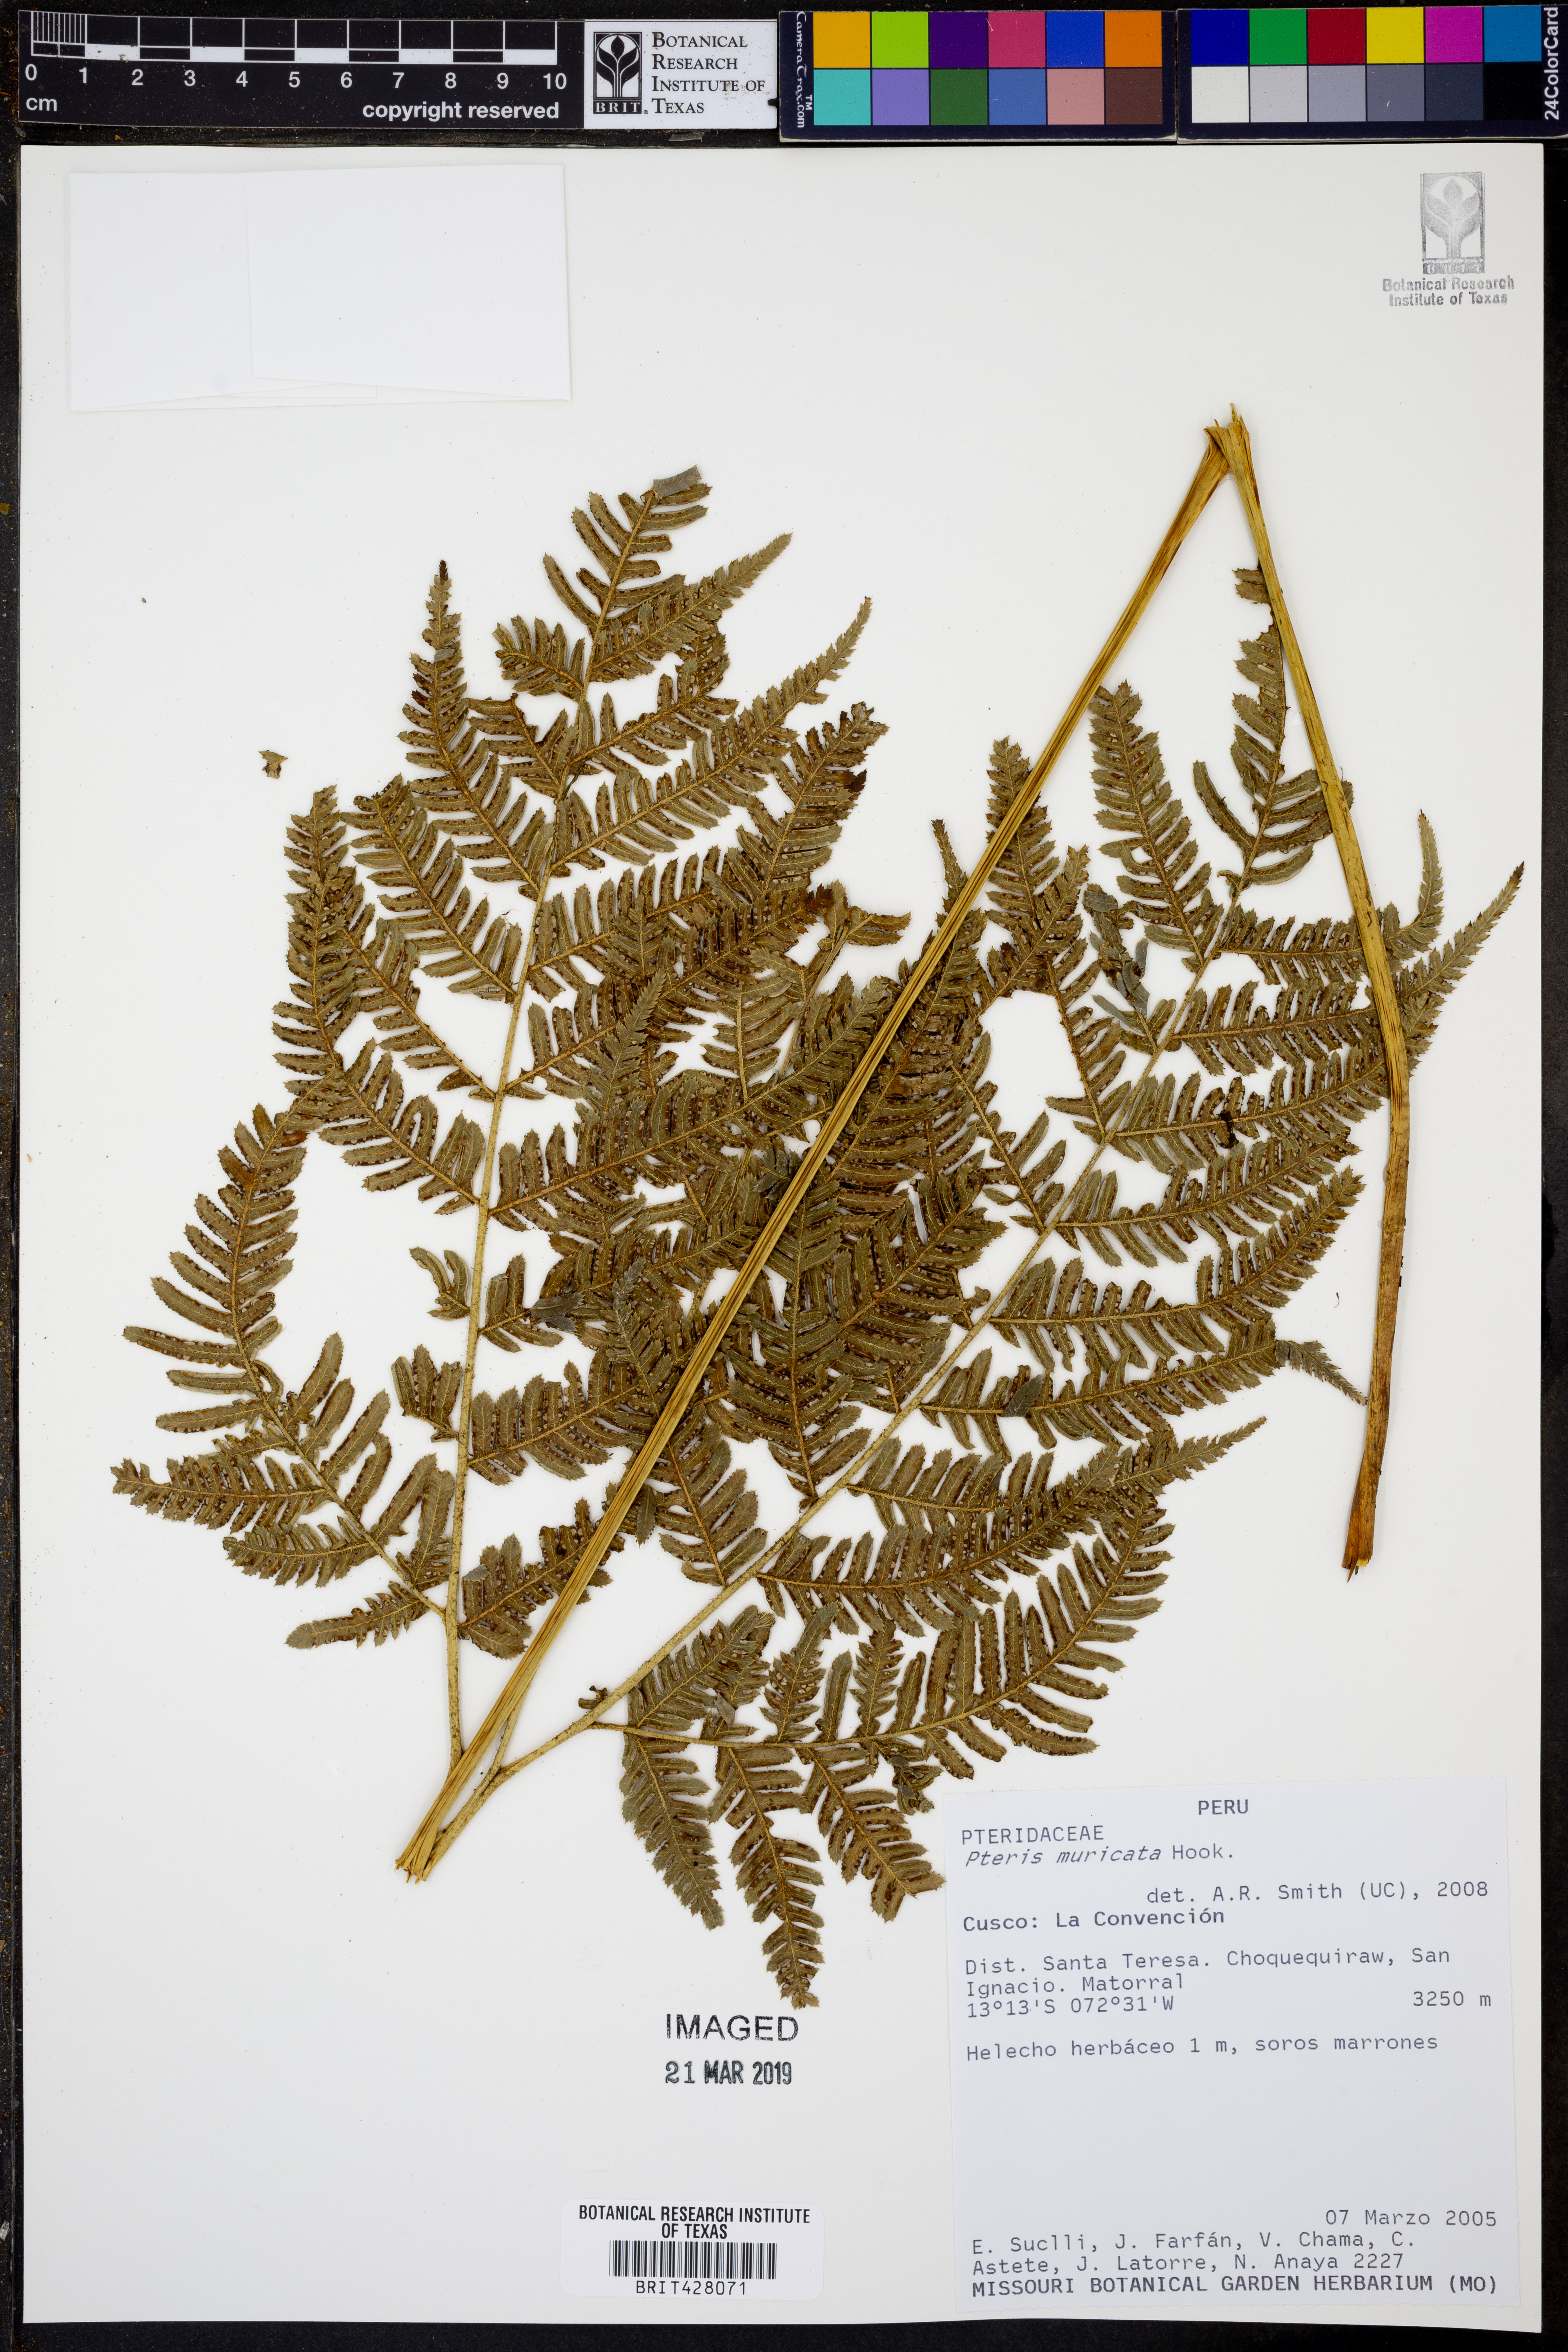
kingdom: Plantae
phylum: Tracheophyta
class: Polypodiopsida
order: Polypodiales
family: Pteridaceae
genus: Pteris
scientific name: Pteris muricata
